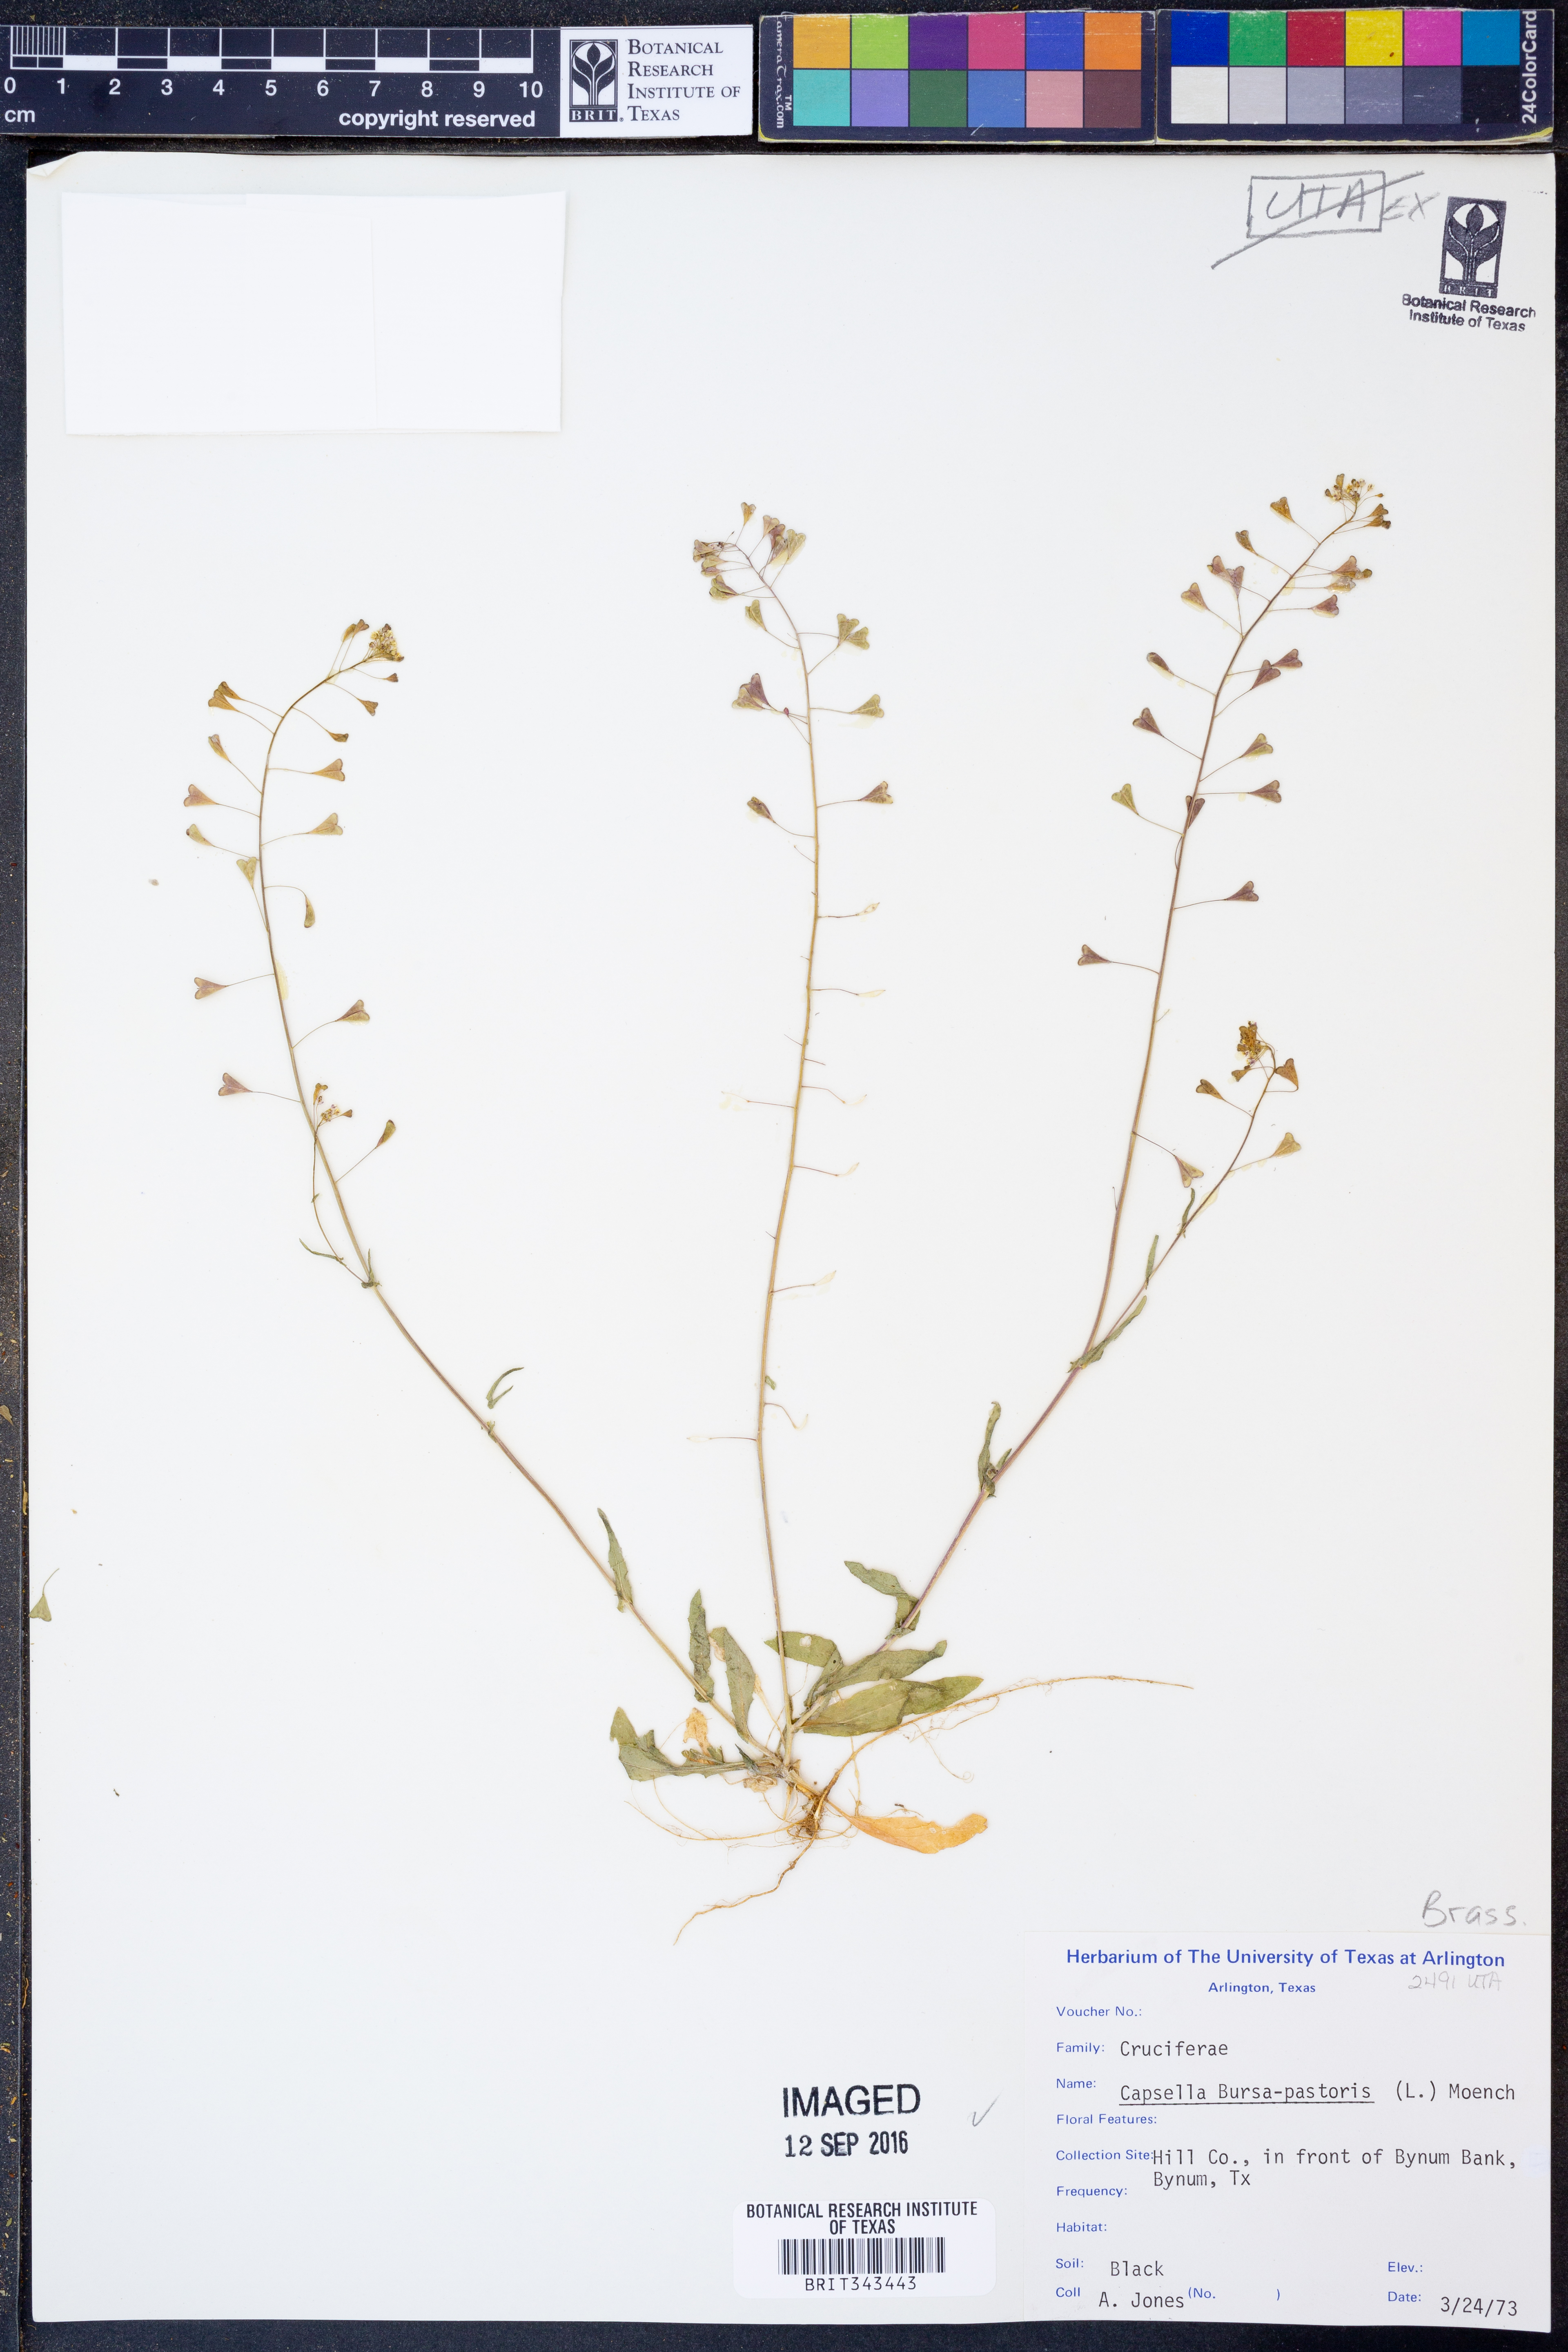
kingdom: Plantae
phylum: Tracheophyta
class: Magnoliopsida
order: Brassicales
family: Brassicaceae
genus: Capsella
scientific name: Capsella bursa-pastoris
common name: Shepherd's purse
